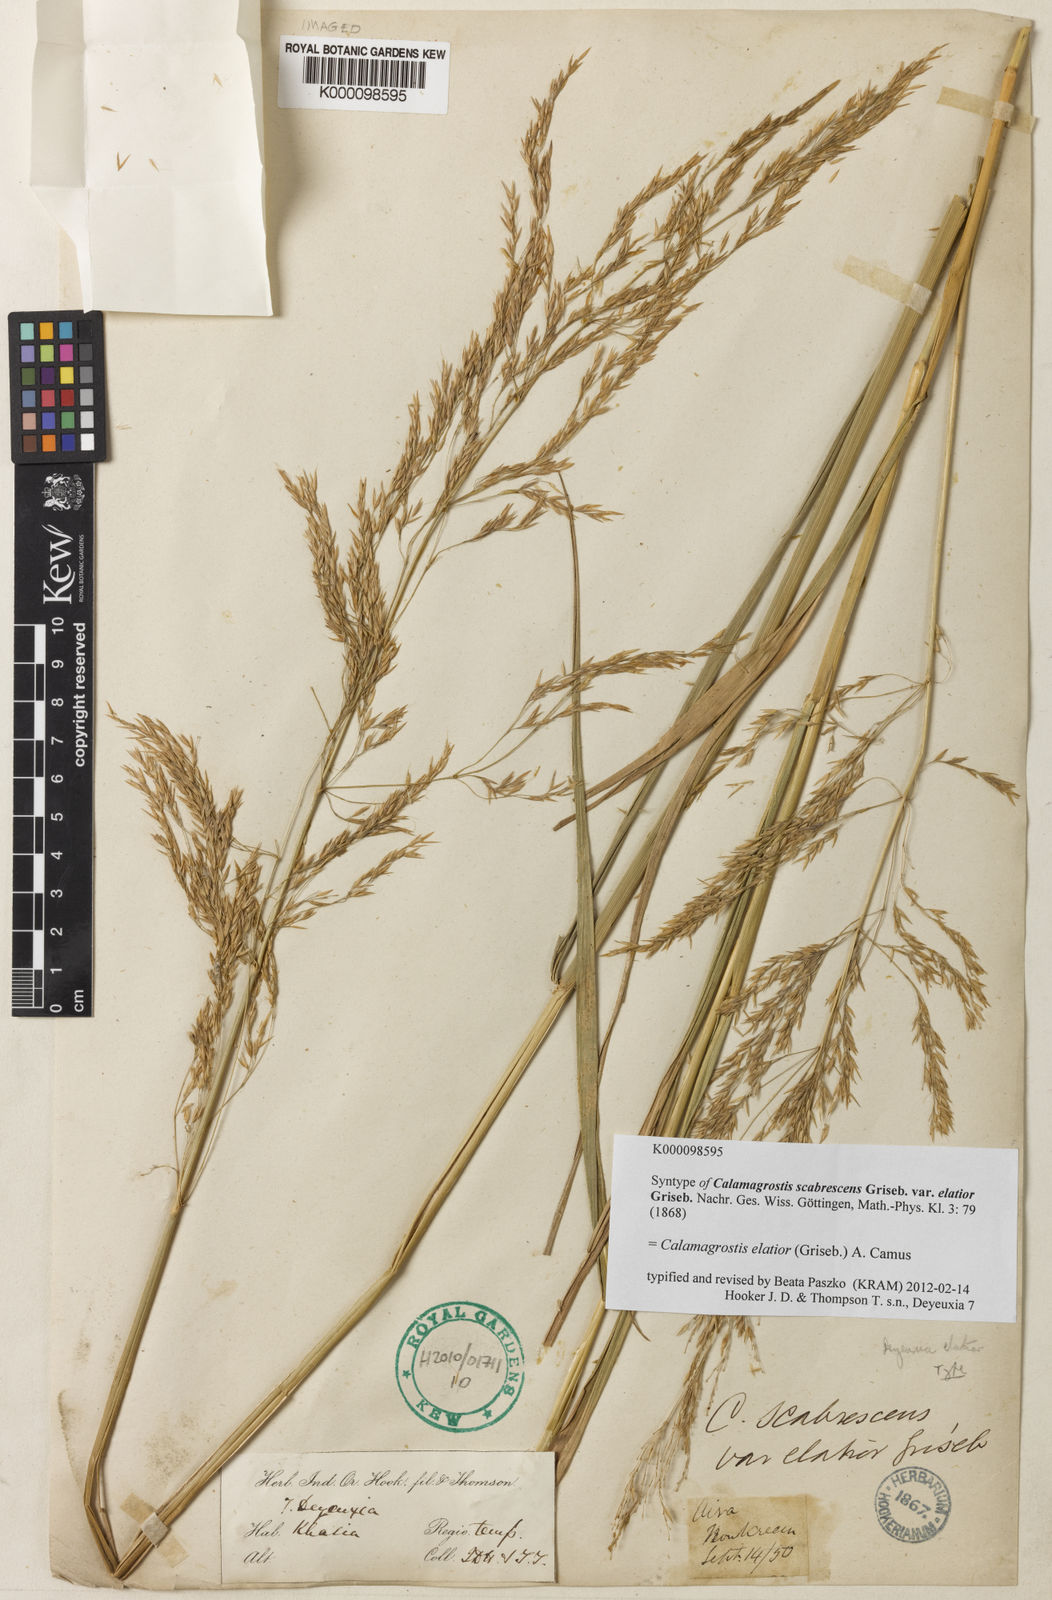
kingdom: Plantae
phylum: Tracheophyta
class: Liliopsida
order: Poales
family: Poaceae
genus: Calamagrostis
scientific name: Calamagrostis elatior
